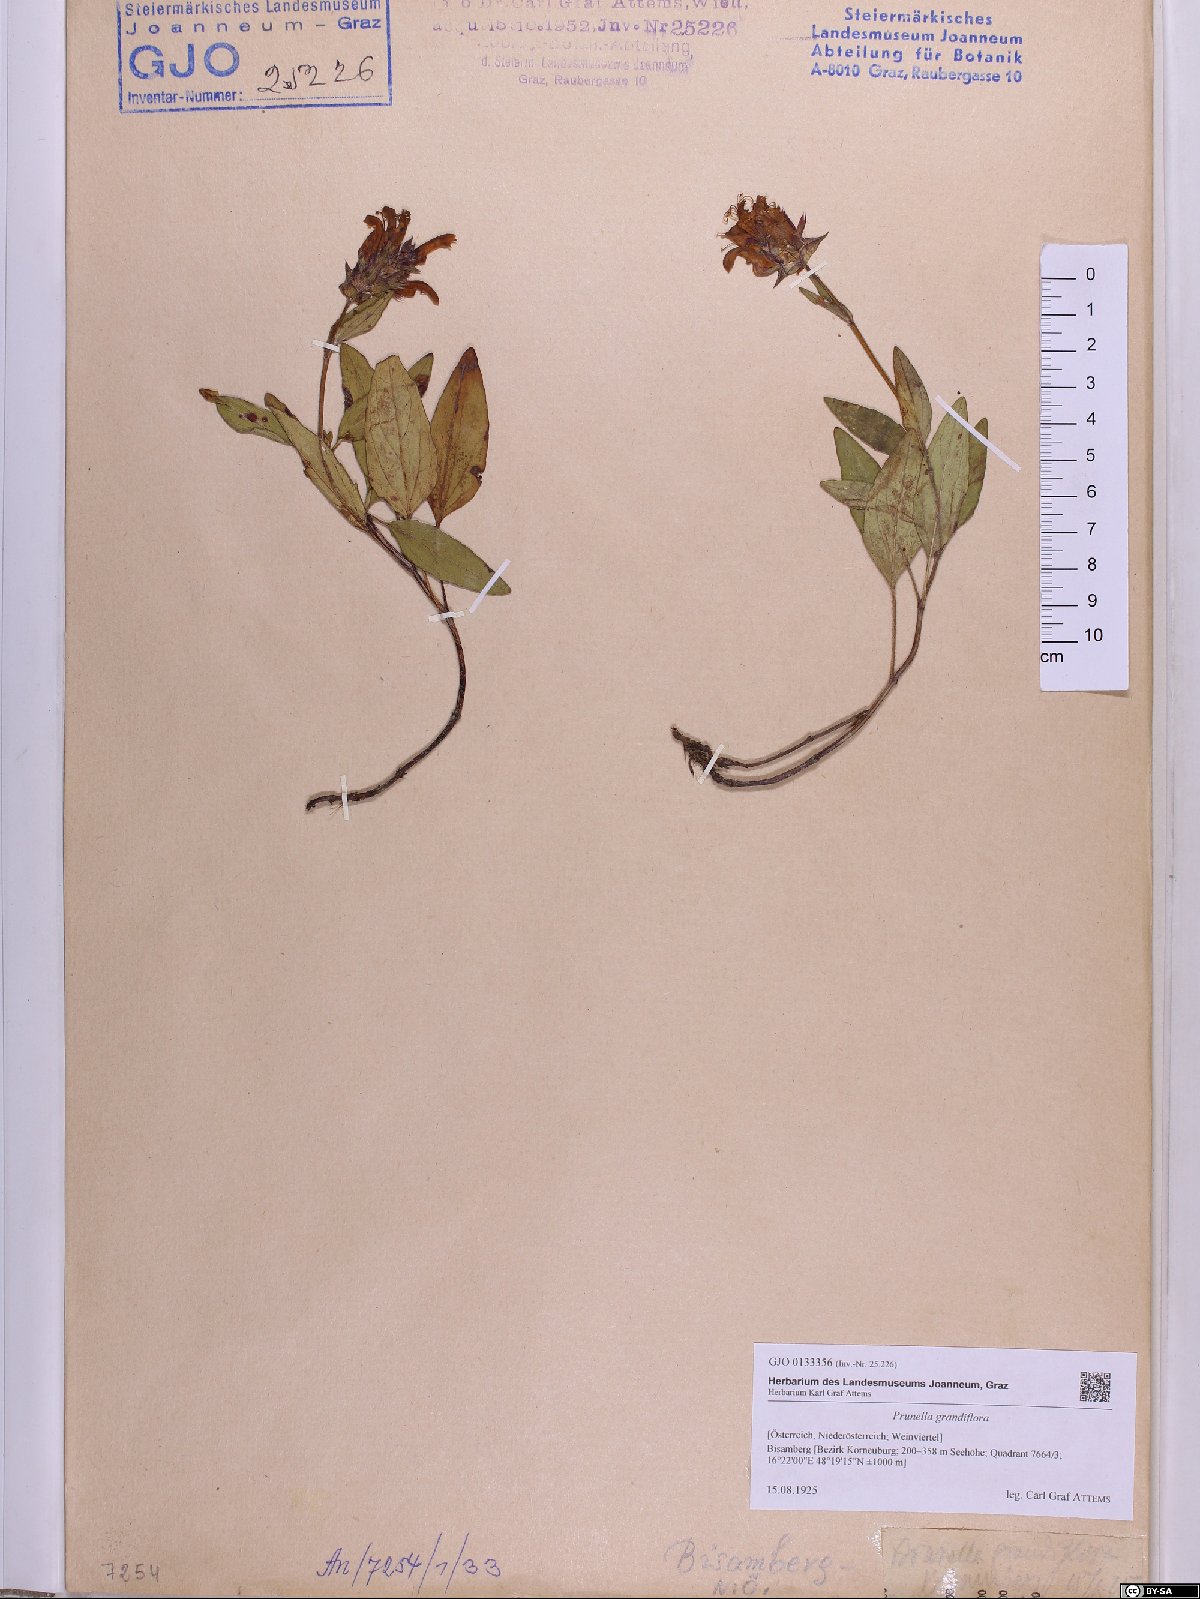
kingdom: Plantae
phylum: Tracheophyta
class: Magnoliopsida
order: Lamiales
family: Lamiaceae
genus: Prunella
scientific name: Prunella grandiflora
